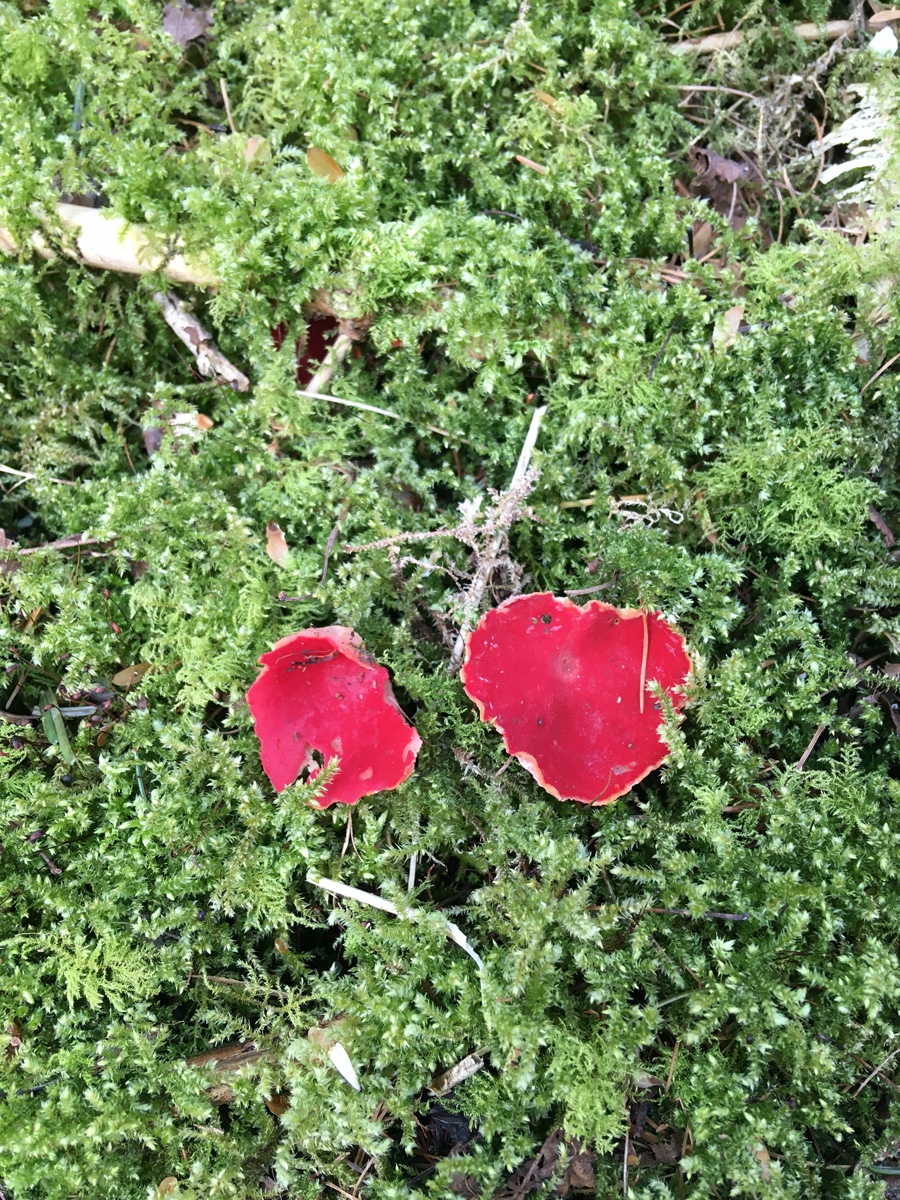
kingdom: Fungi
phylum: Ascomycota
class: Pezizomycetes
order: Pezizales
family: Sarcoscyphaceae
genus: Sarcoscypha
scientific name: Sarcoscypha austriaca
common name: krølhåret pragtbæger
